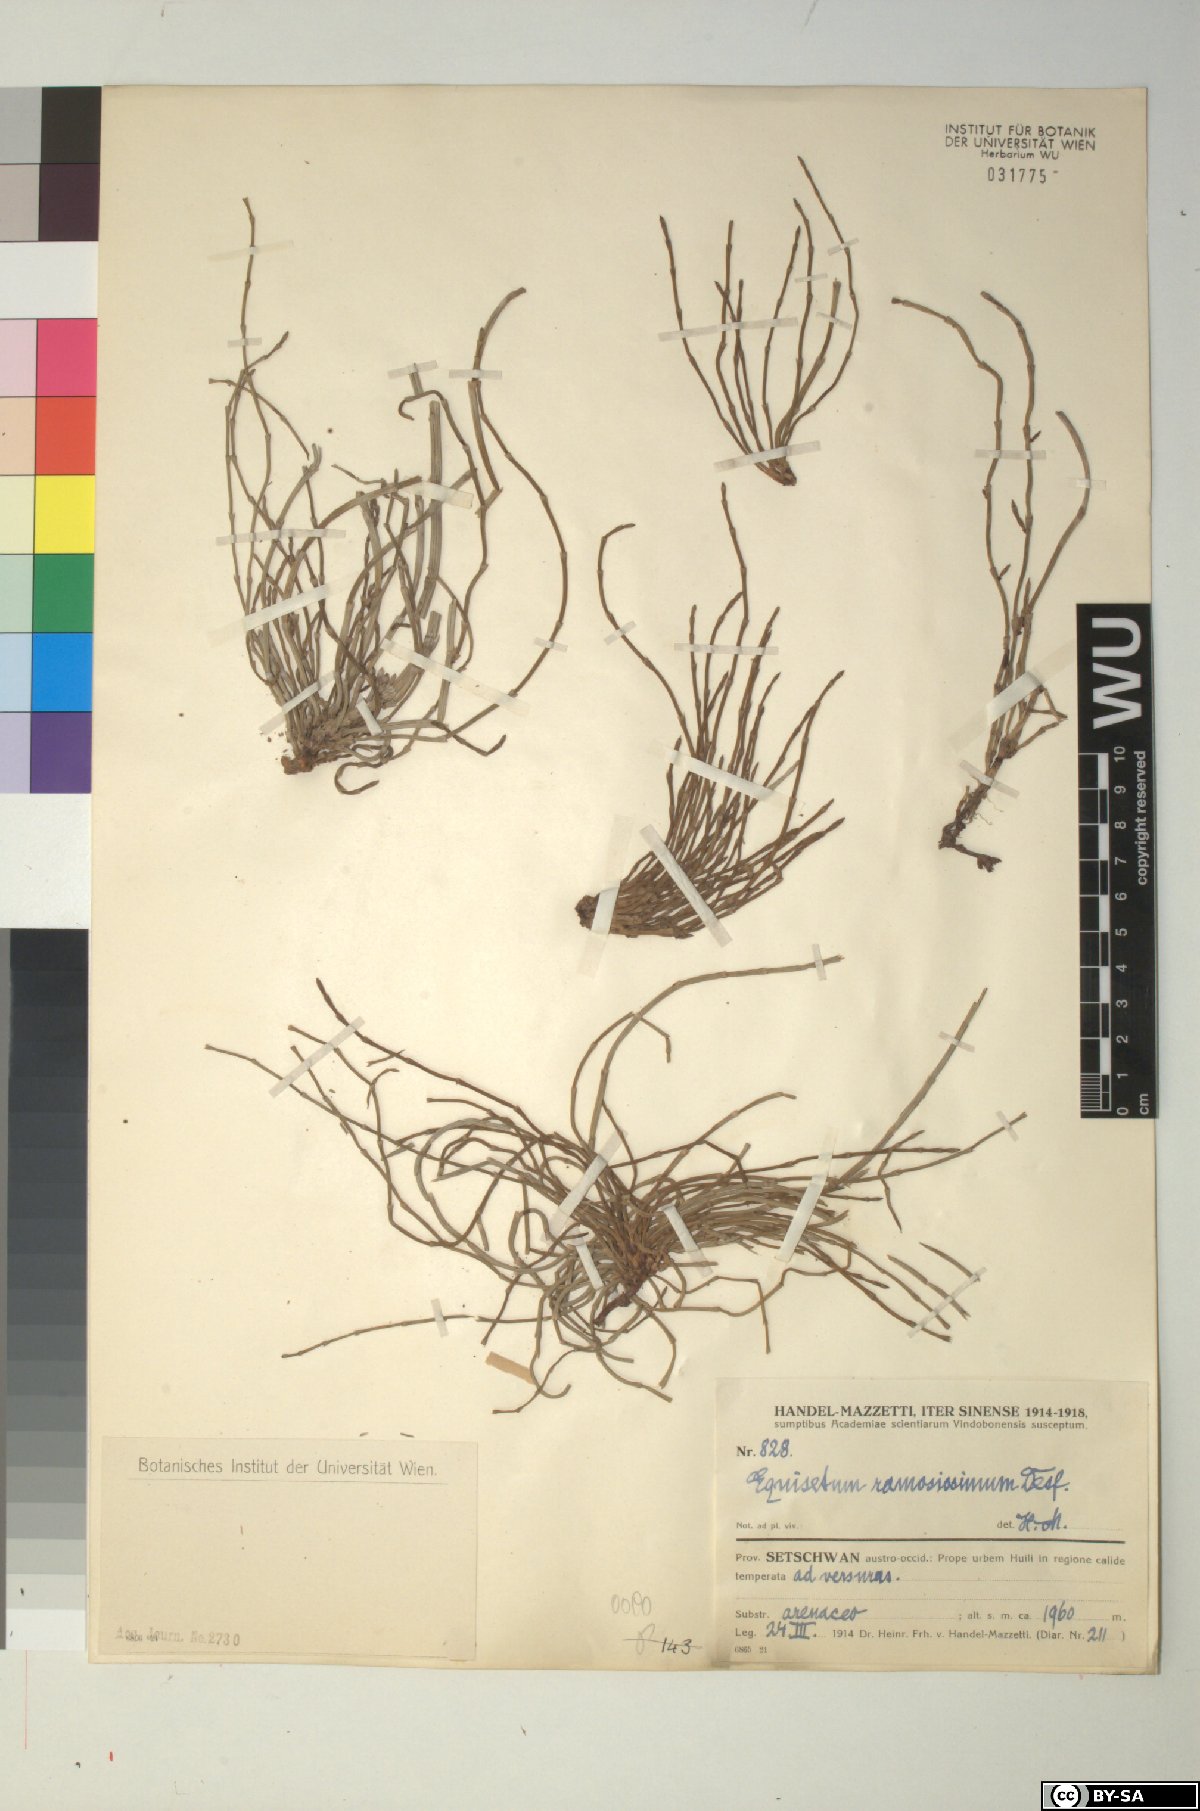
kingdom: Plantae
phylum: Tracheophyta
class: Polypodiopsida
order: Equisetales
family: Equisetaceae
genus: Equisetum
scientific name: Equisetum ramosissimum
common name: Branched horsetail
